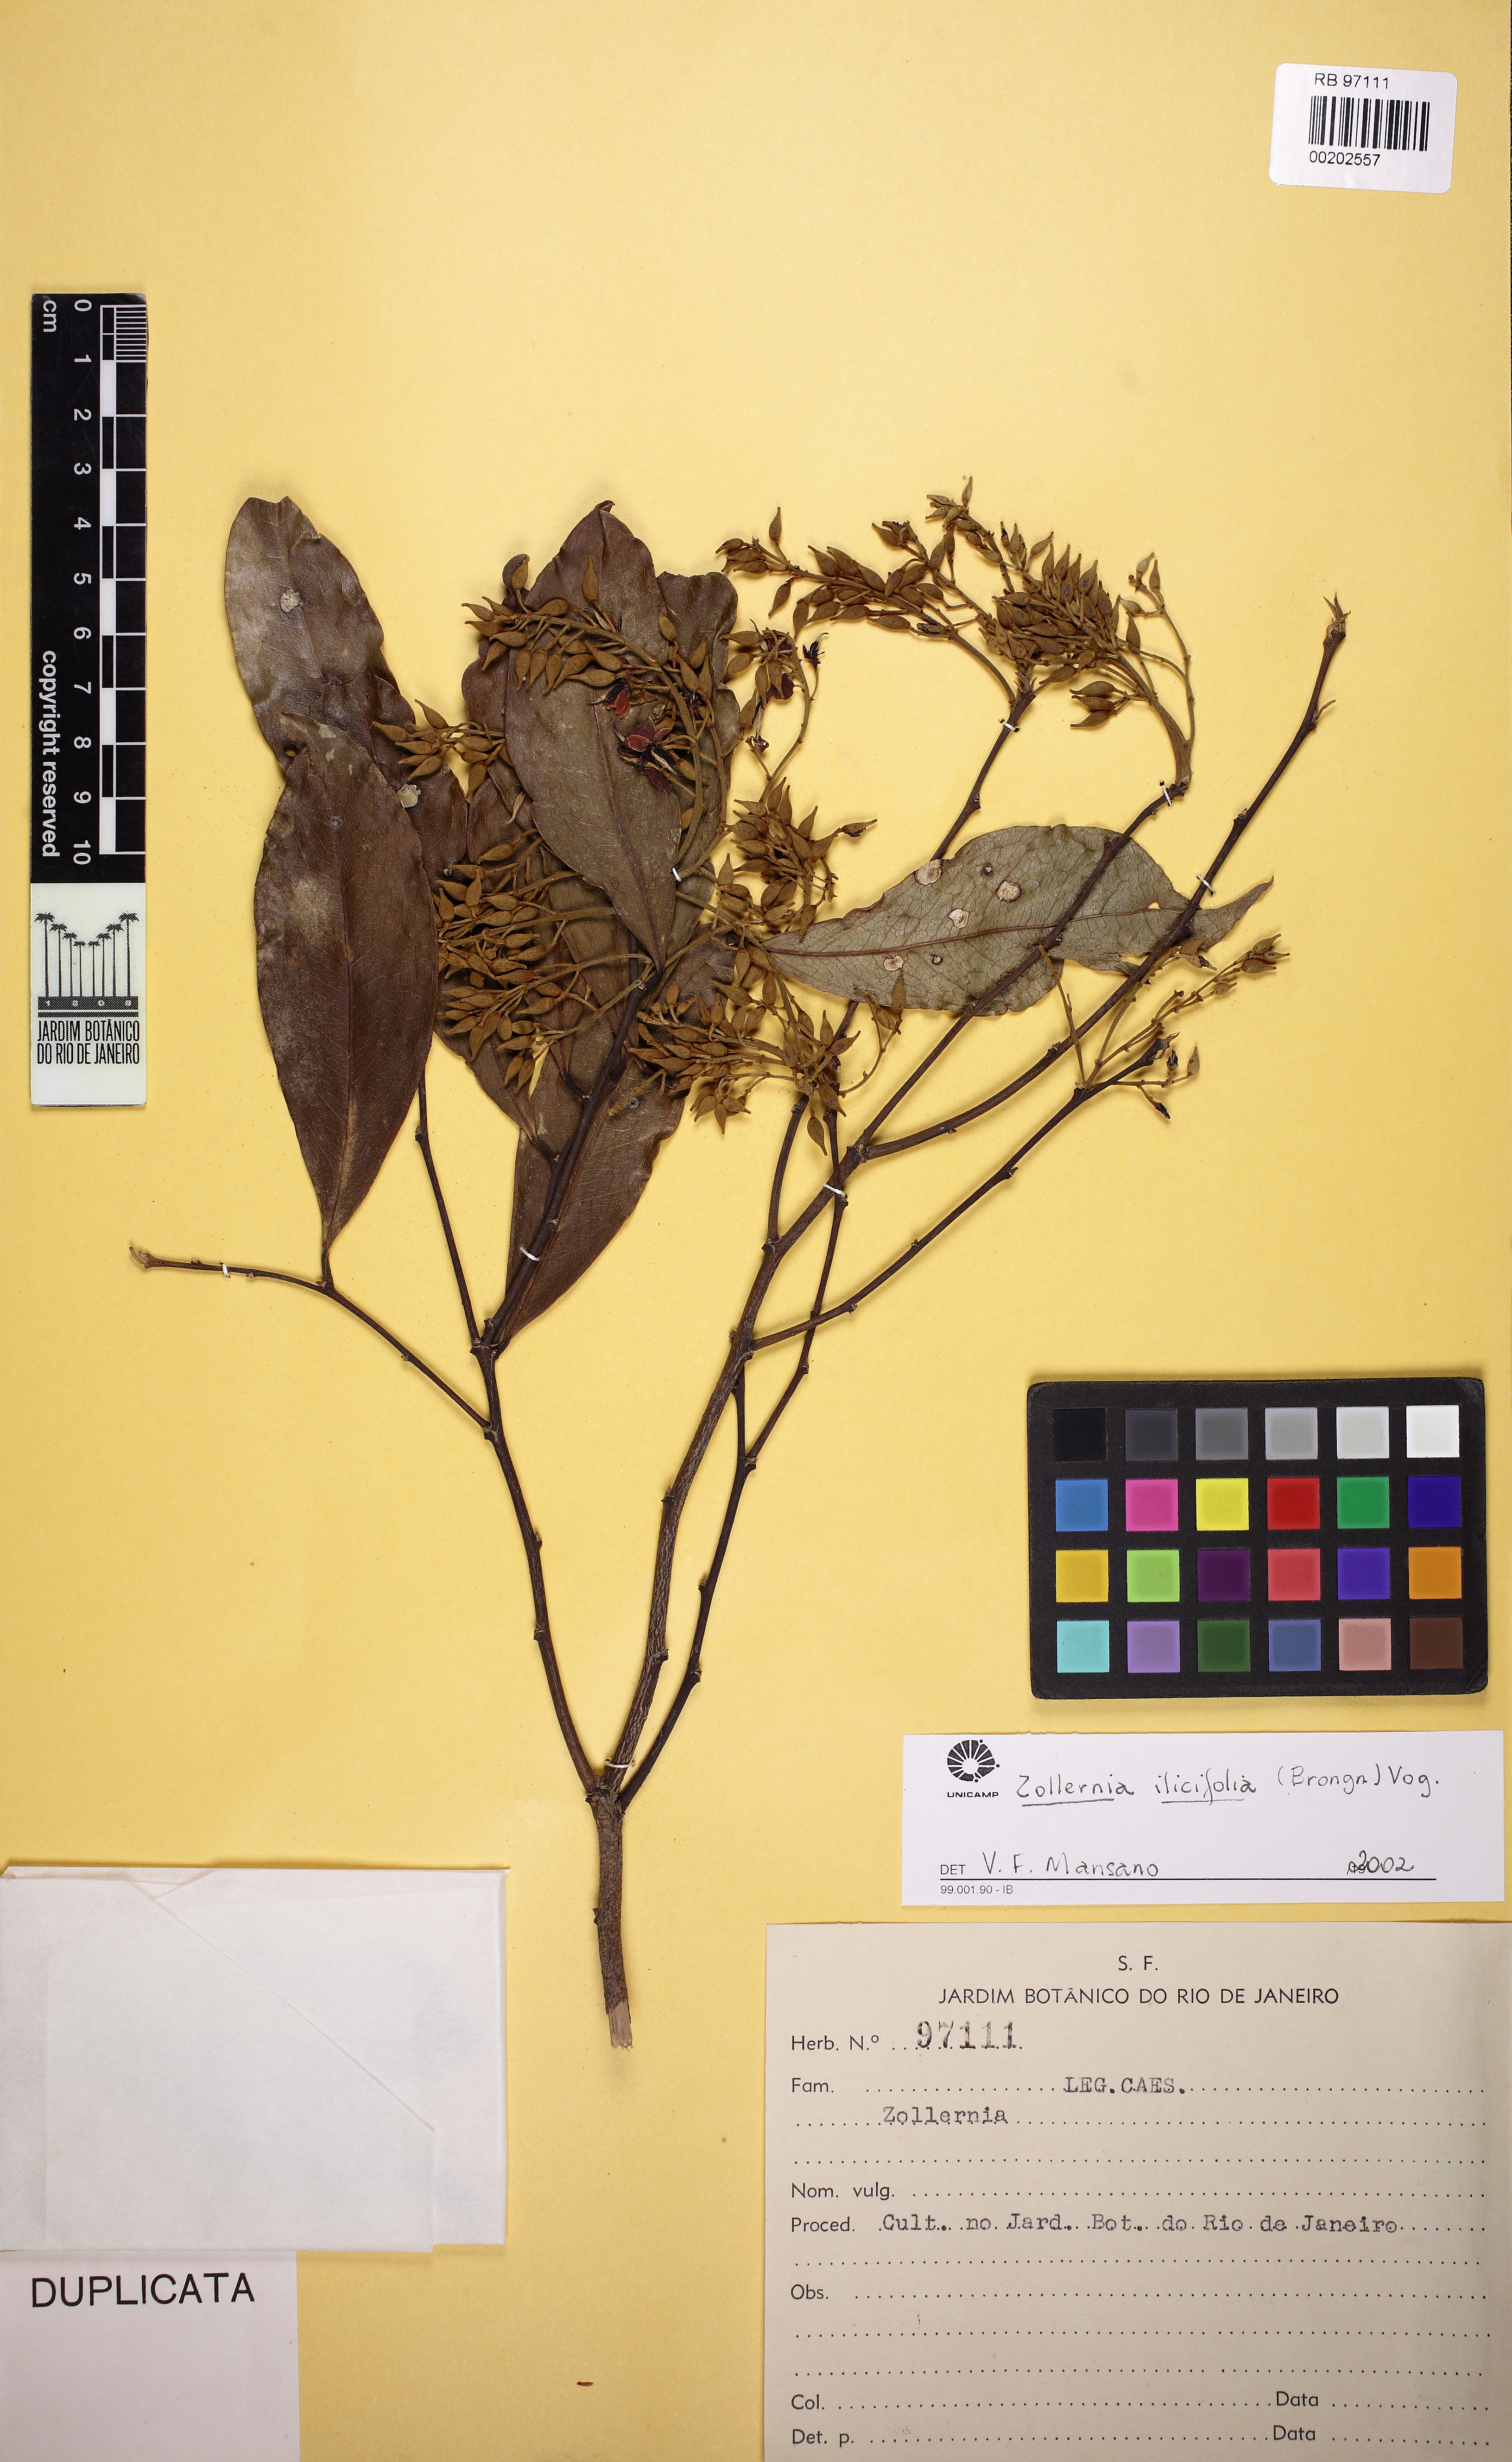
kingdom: Plantae
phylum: Tracheophyta
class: Magnoliopsida
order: Fabales
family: Fabaceae
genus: Zollernia
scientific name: Zollernia ilicifolia
